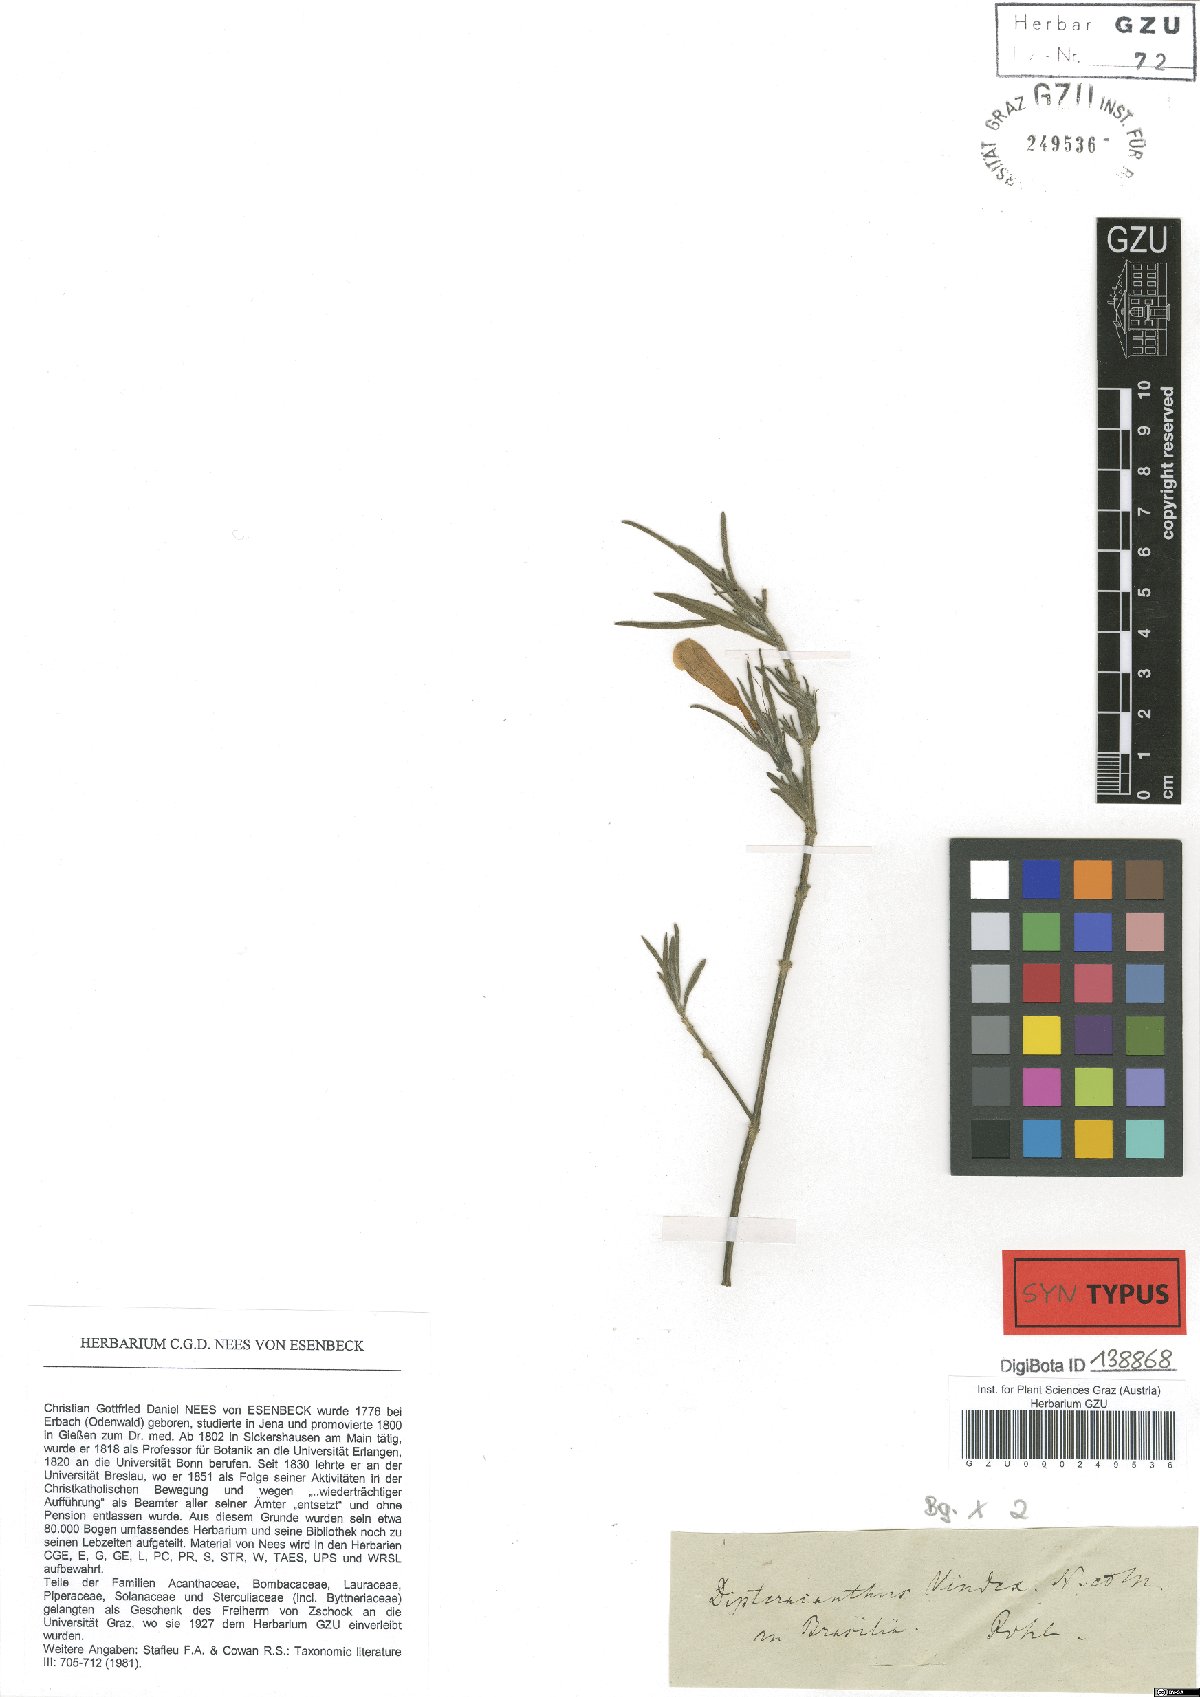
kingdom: Plantae
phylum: Tracheophyta
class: Magnoliopsida
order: Lamiales
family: Acanthaceae
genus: Ruellia
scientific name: Ruellia geminiflora
